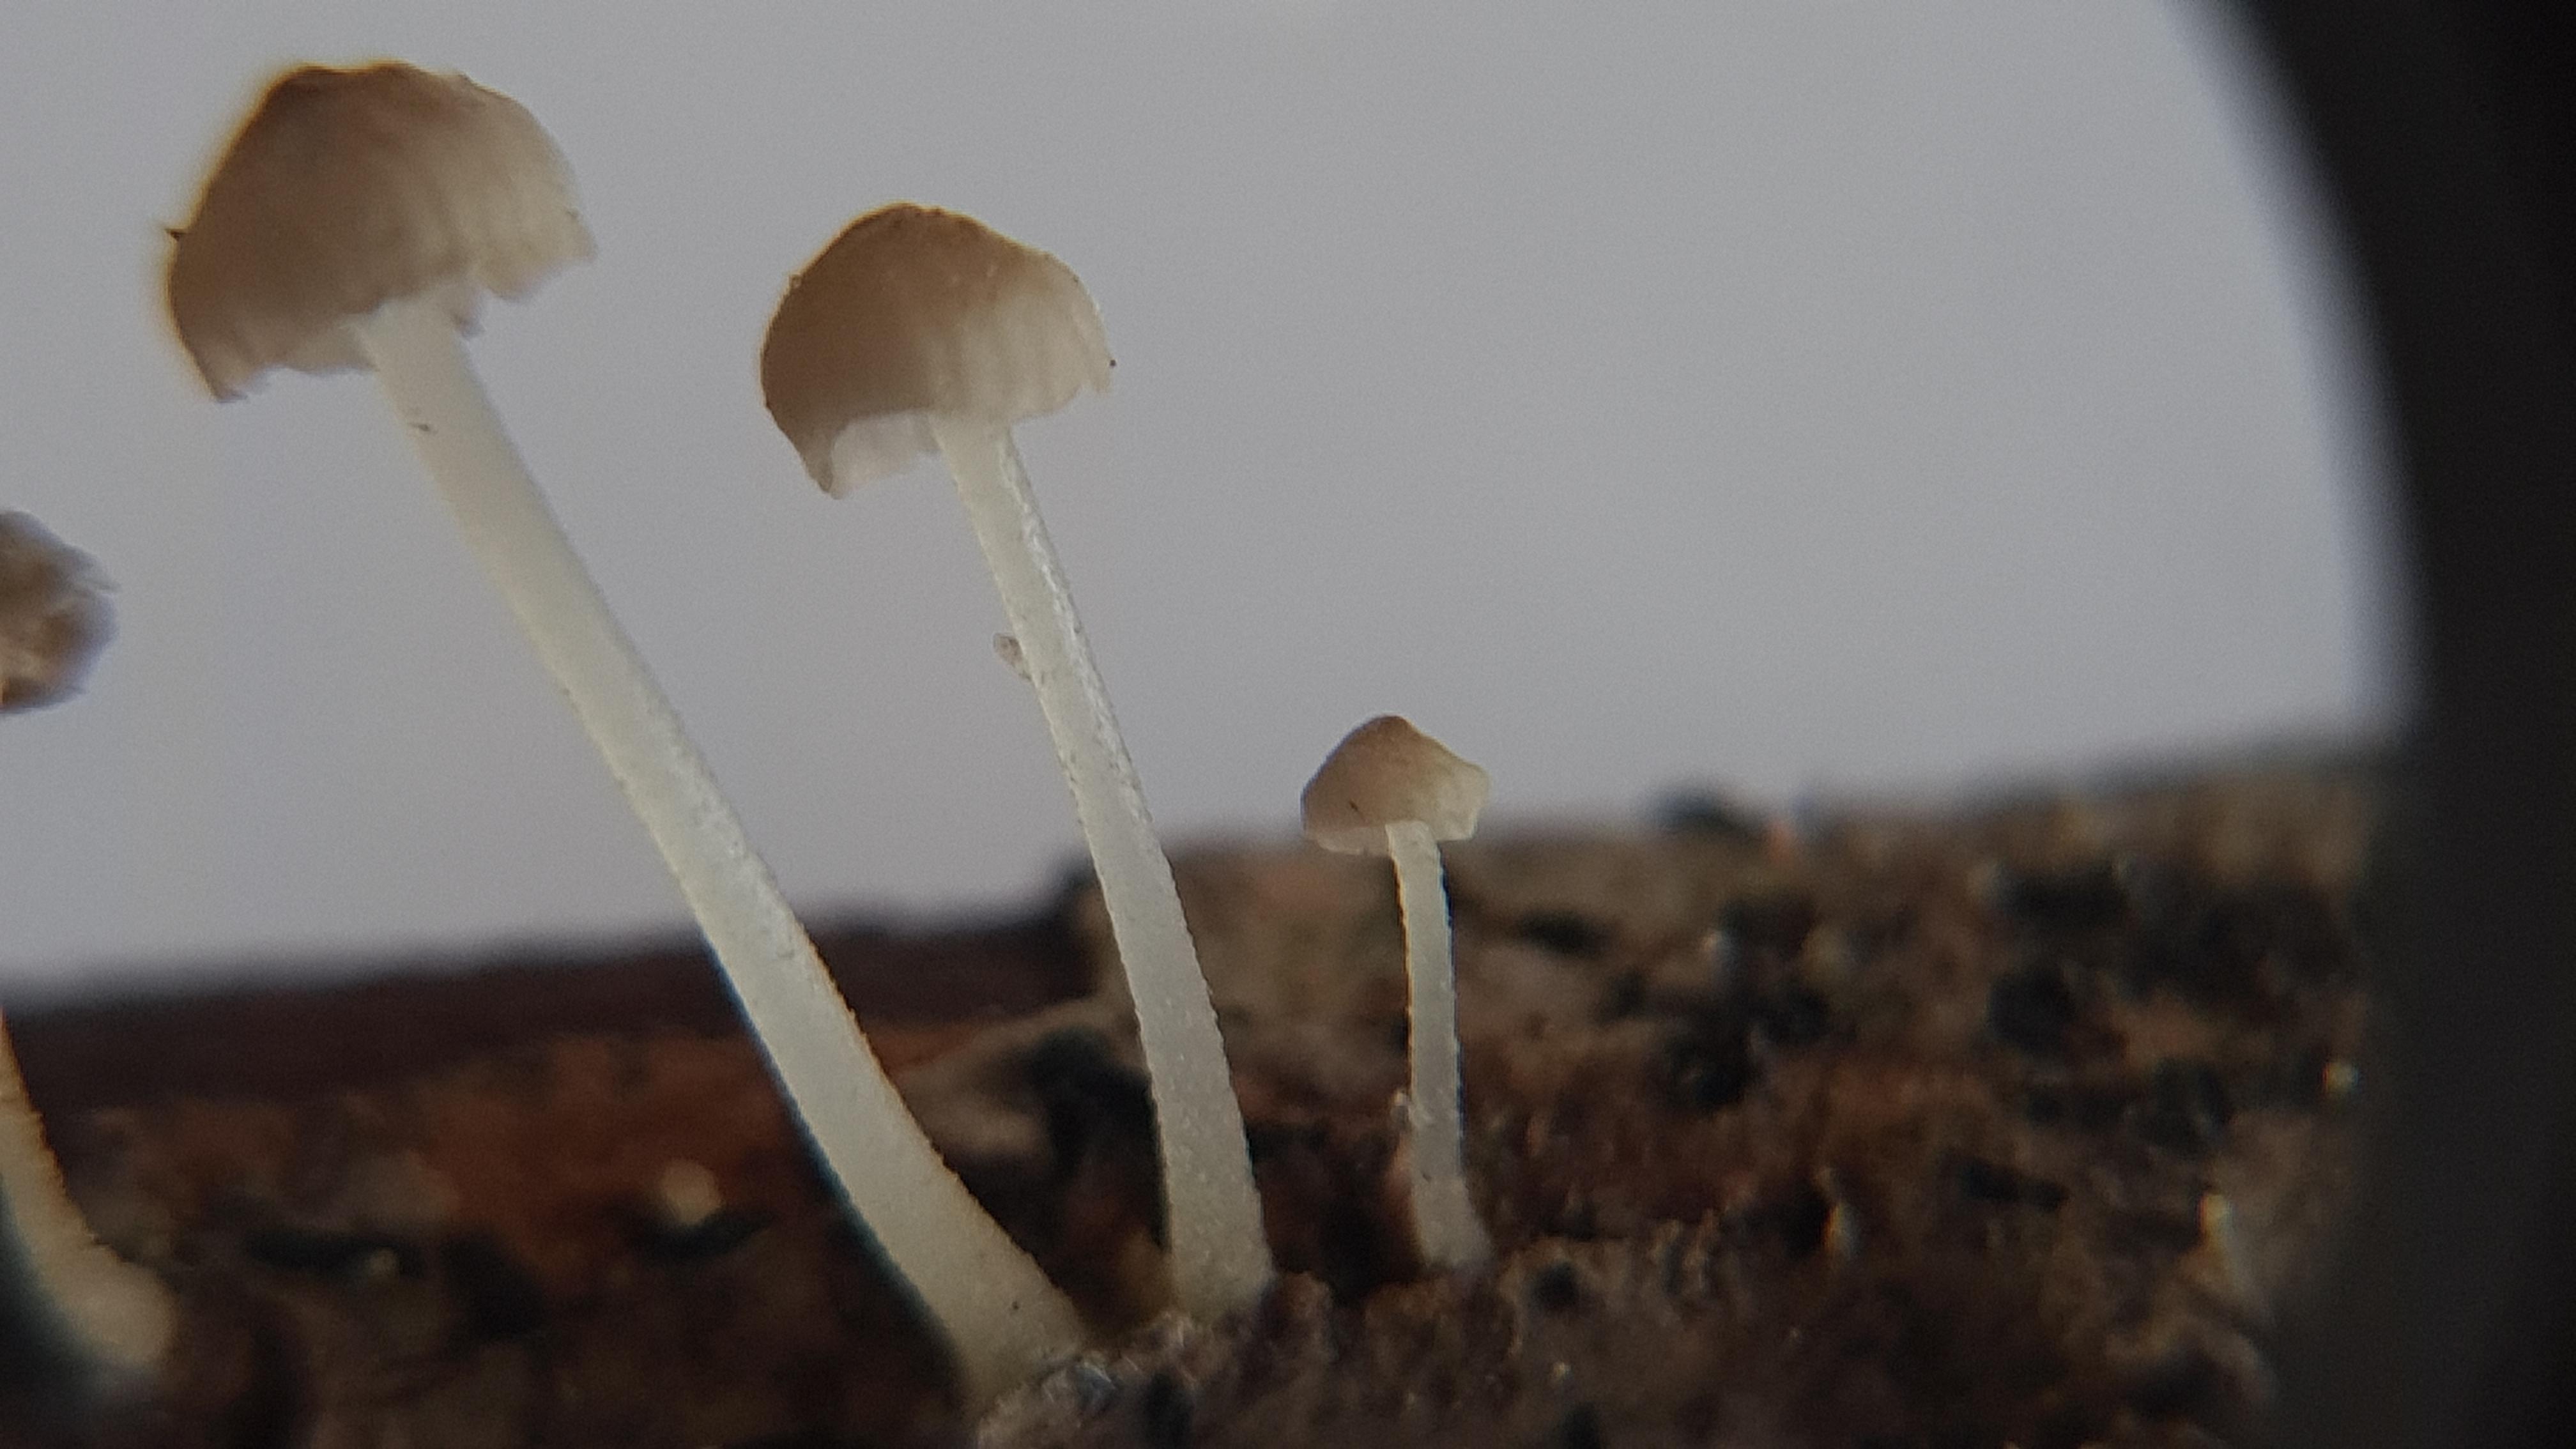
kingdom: Fungi
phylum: Basidiomycota
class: Agaricomycetes
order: Agaricales
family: Porotheleaceae
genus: Phloeomana
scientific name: Phloeomana speirea
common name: kvist-huesvamp
